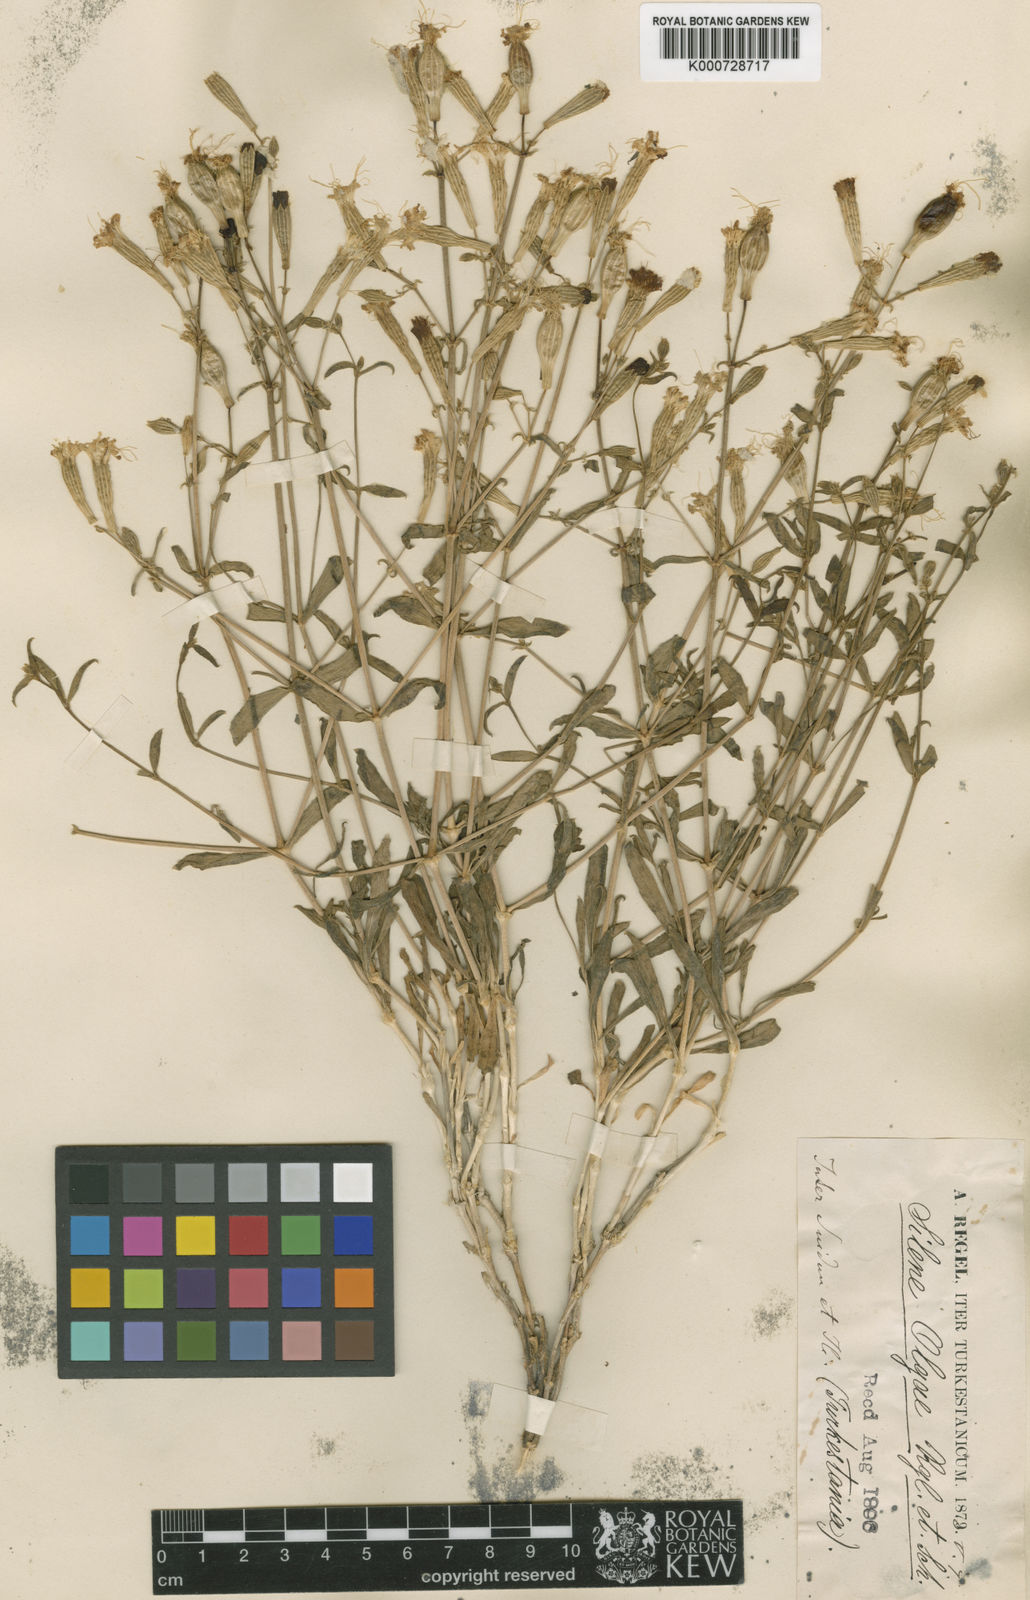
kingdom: Plantae
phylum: Tracheophyta
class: Magnoliopsida
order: Caryophyllales
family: Caryophyllaceae
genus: Silene
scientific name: Silene
